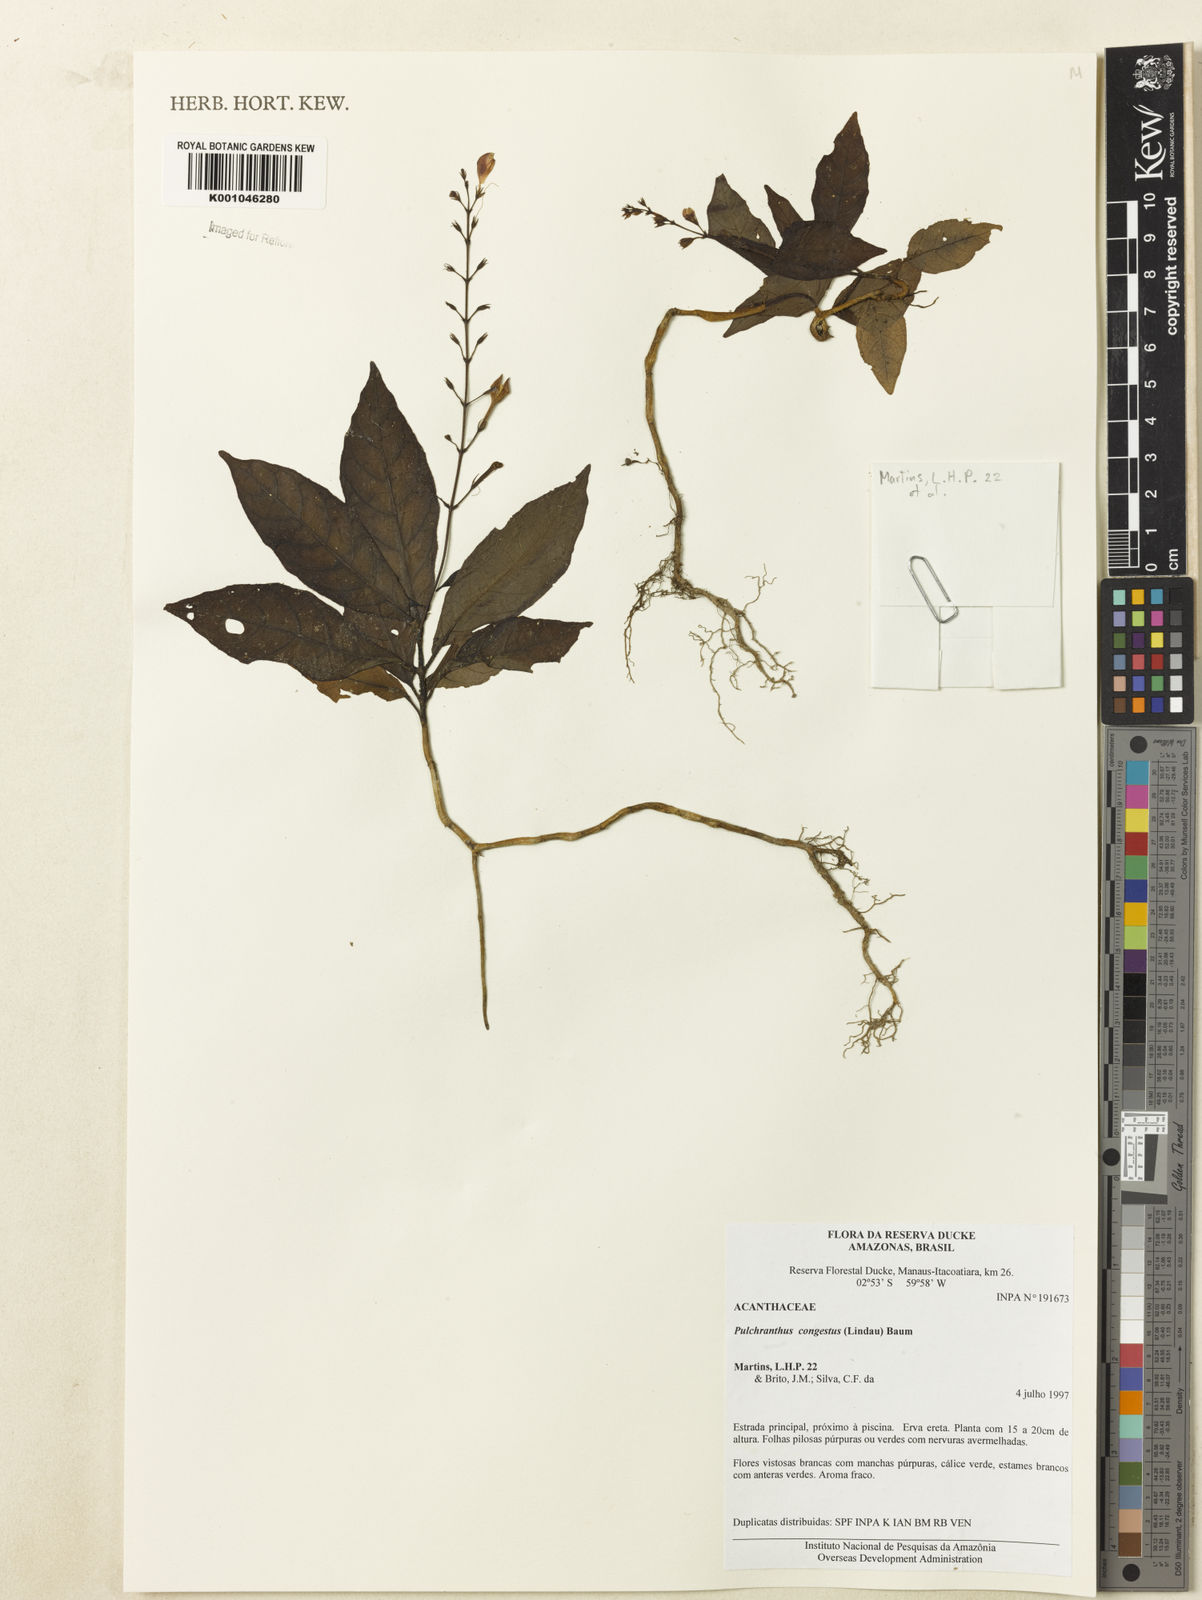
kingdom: Plantae
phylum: Tracheophyta
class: Magnoliopsida
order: Lamiales
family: Acanthaceae
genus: Pulchranthus
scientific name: Pulchranthus
